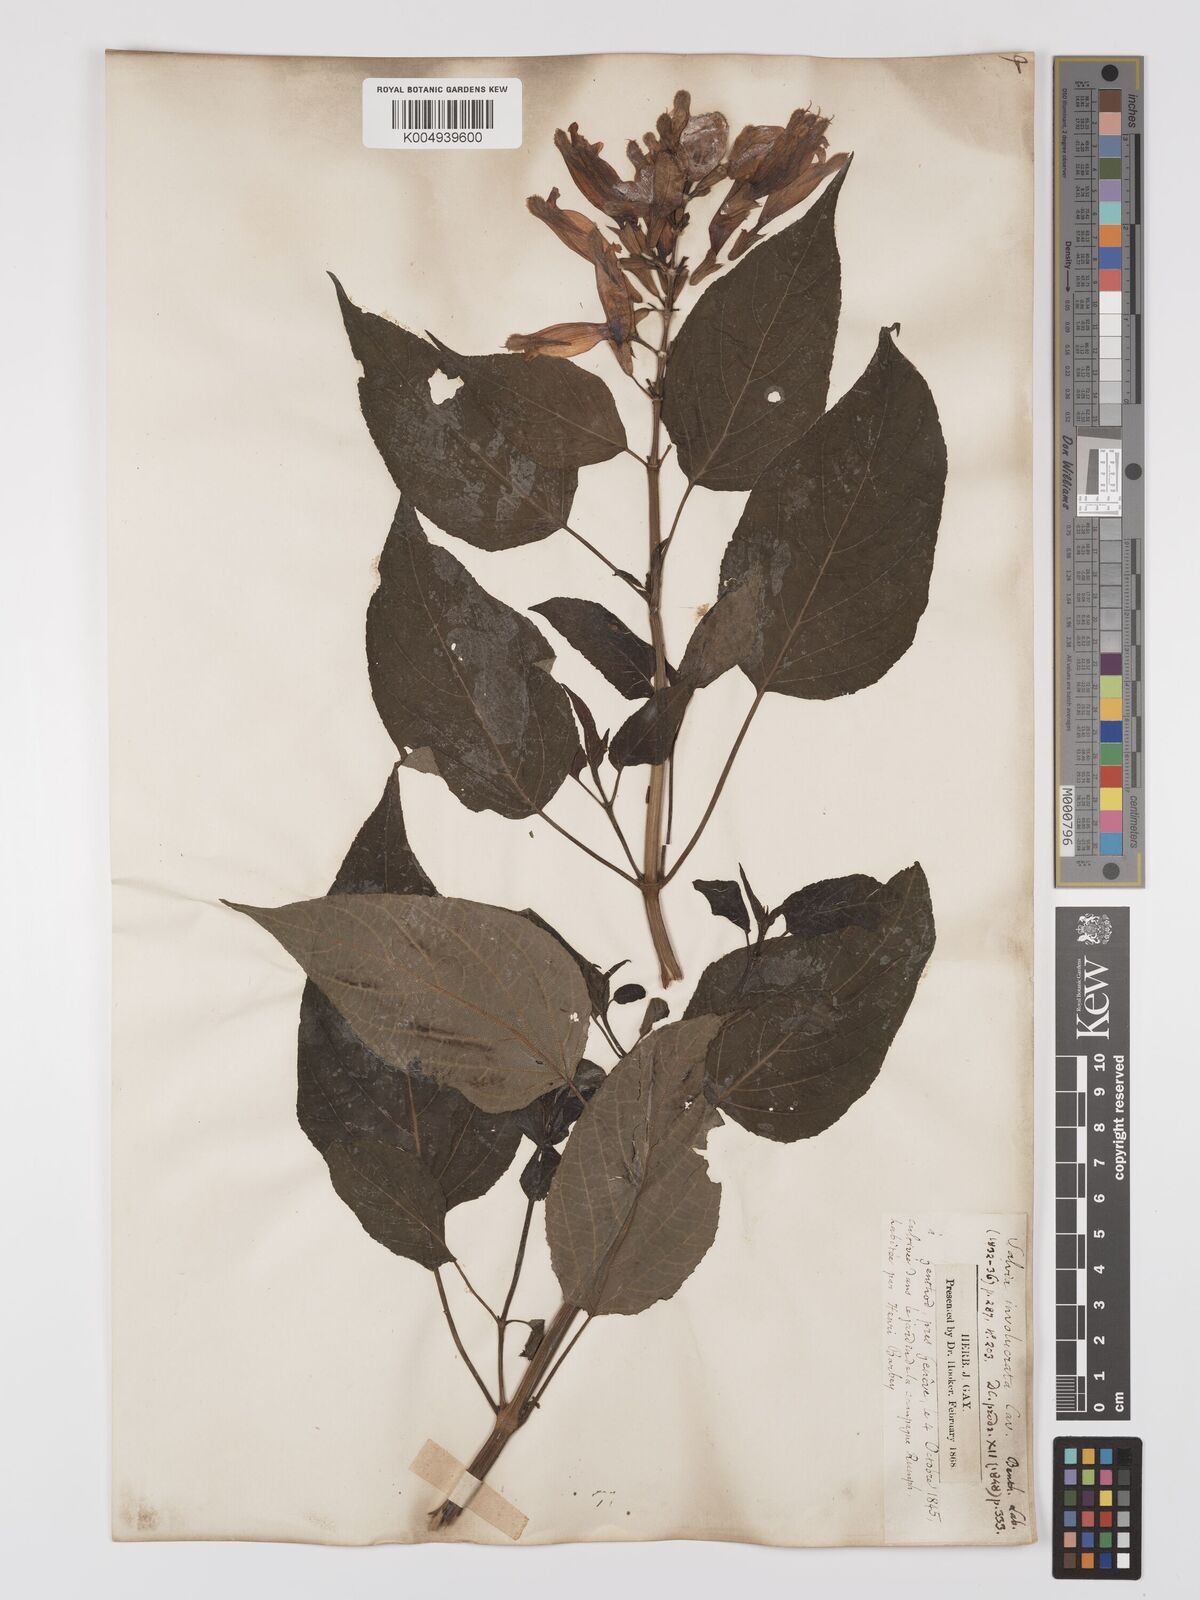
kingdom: Plantae
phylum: Tracheophyta
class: Magnoliopsida
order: Lamiales
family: Lamiaceae
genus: Salvia
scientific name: Salvia involucrata
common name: Roseleaf sage
